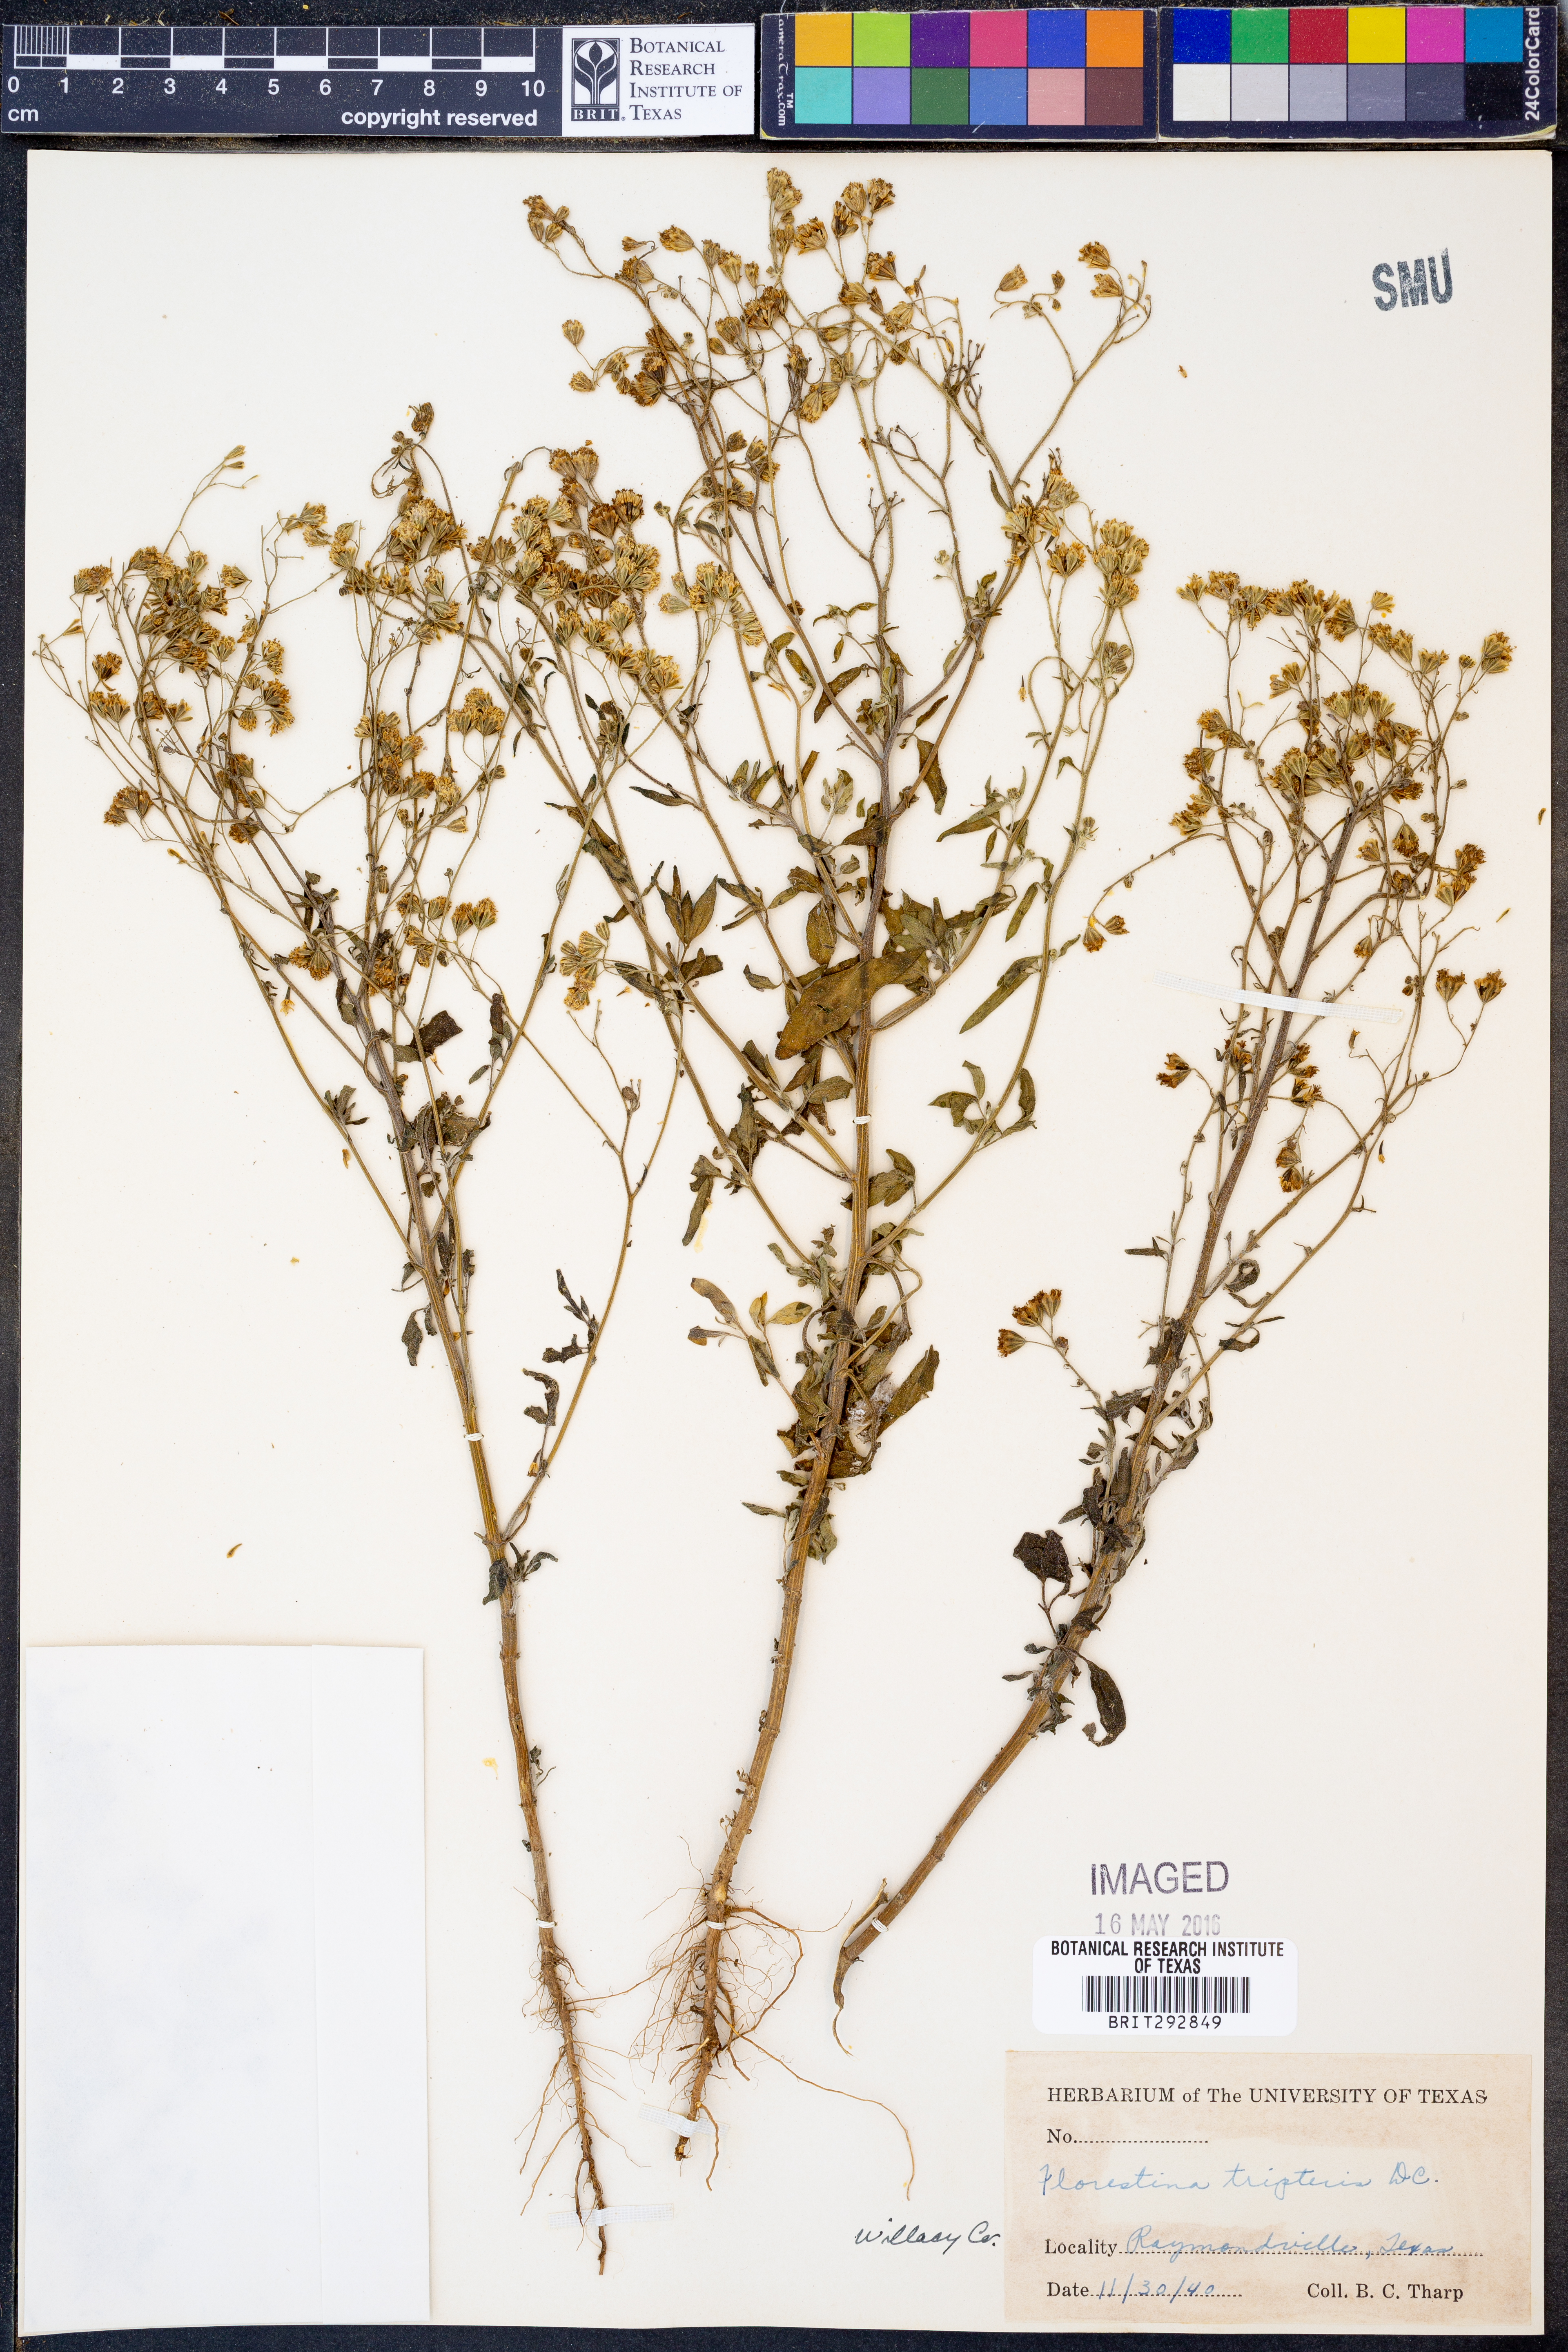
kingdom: Plantae
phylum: Tracheophyta
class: Magnoliopsida
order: Asterales
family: Asteraceae
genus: Florestina
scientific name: Florestina tripteris
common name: Sticky florestina
